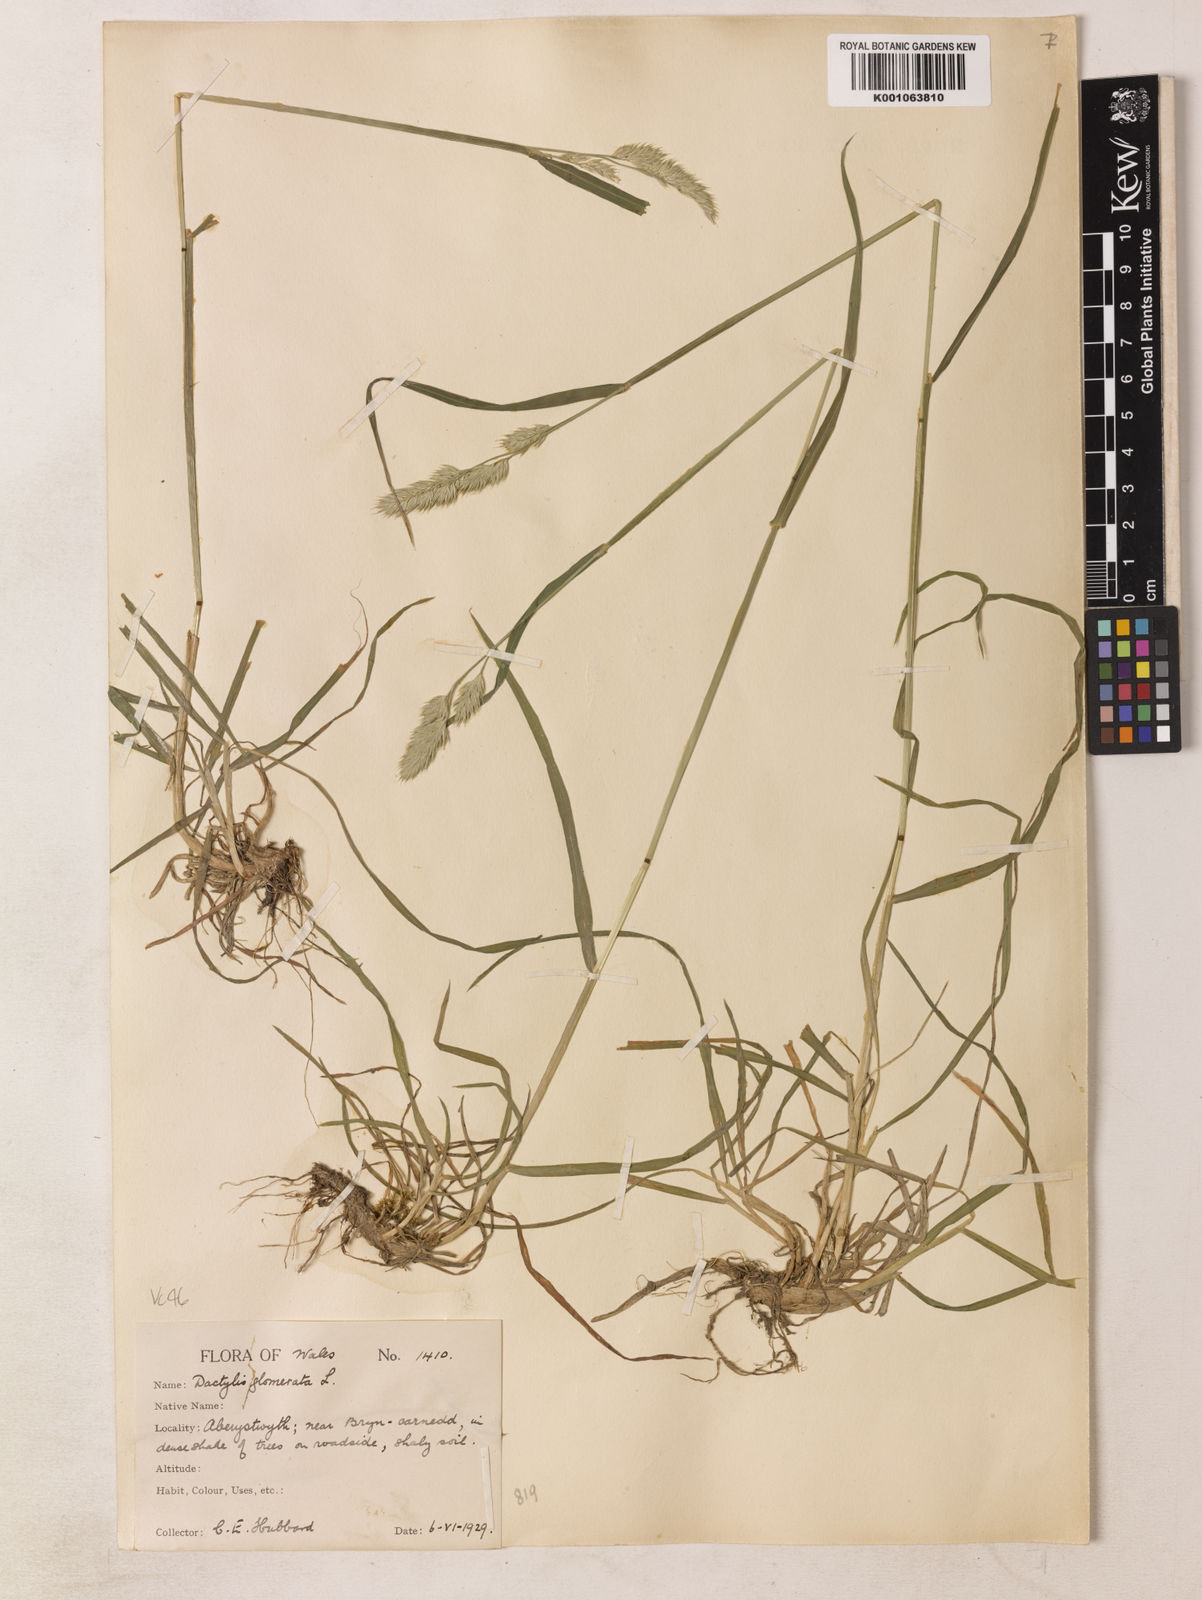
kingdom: Plantae
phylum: Tracheophyta
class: Liliopsida
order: Poales
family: Poaceae
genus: Dactylis
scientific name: Dactylis glomerata
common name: Orchardgrass
